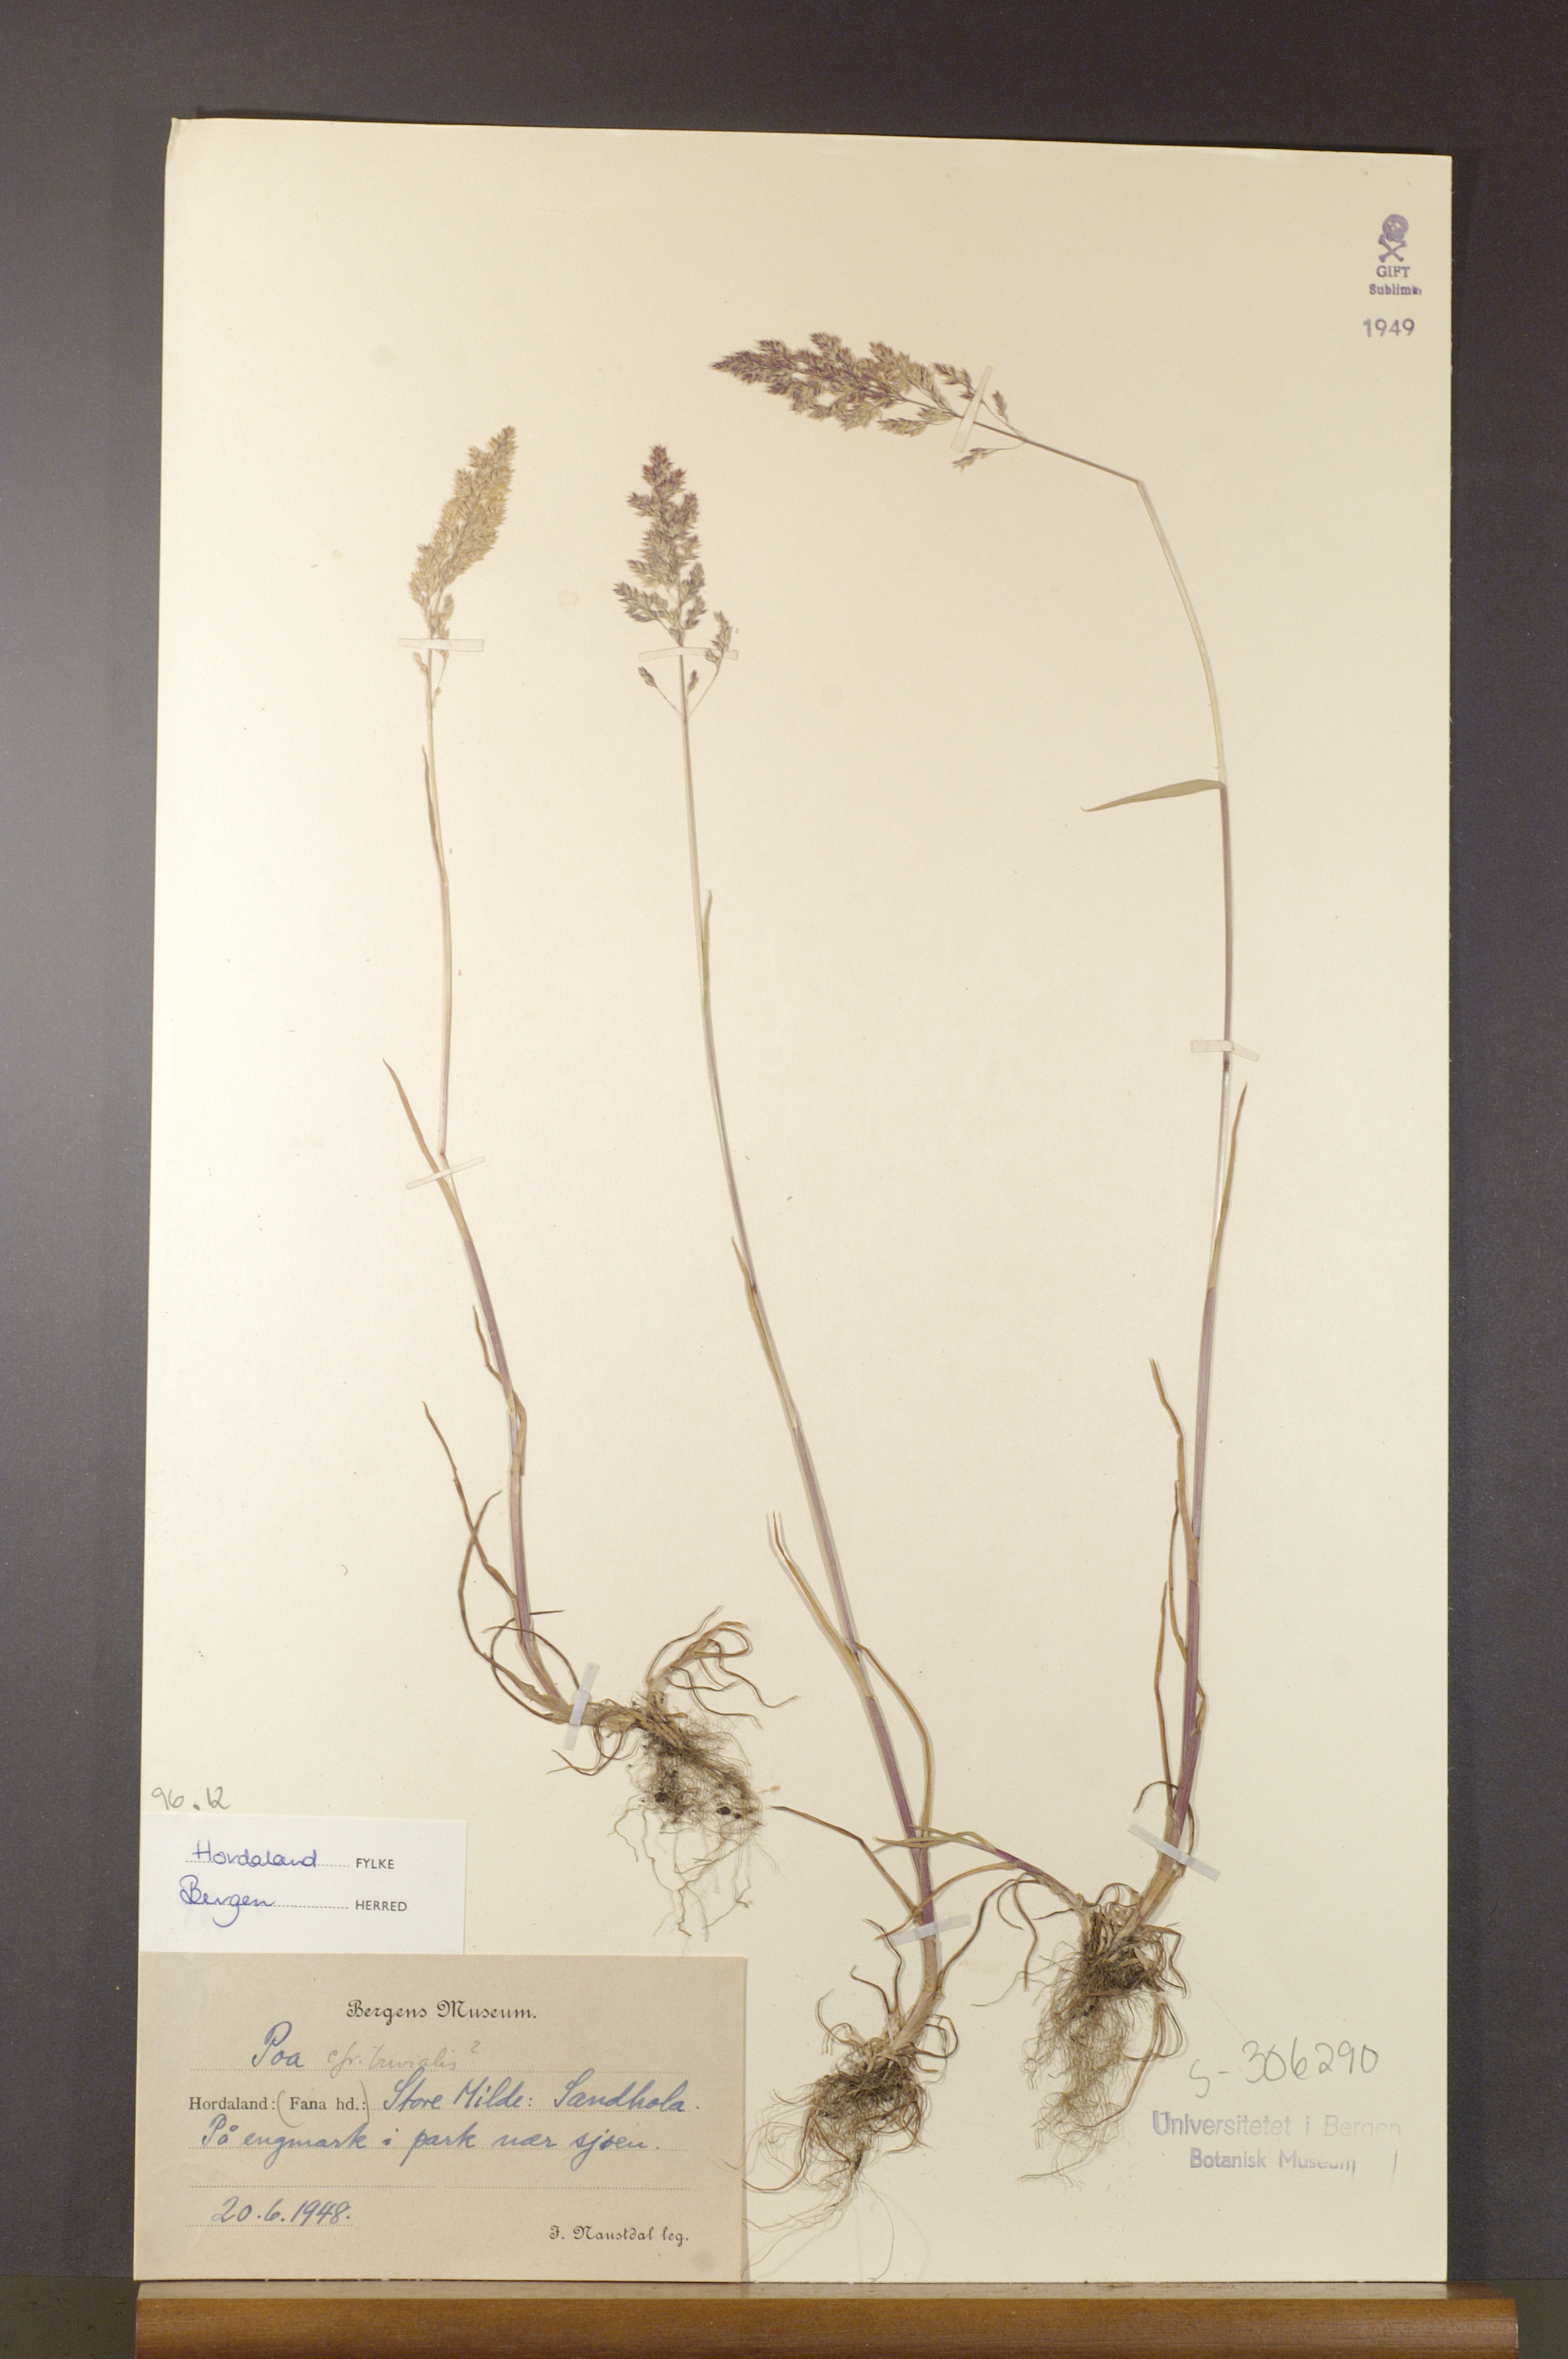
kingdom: Plantae
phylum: Tracheophyta
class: Liliopsida
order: Poales
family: Poaceae
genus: Poa
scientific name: Poa trivialis
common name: Rough bluegrass
